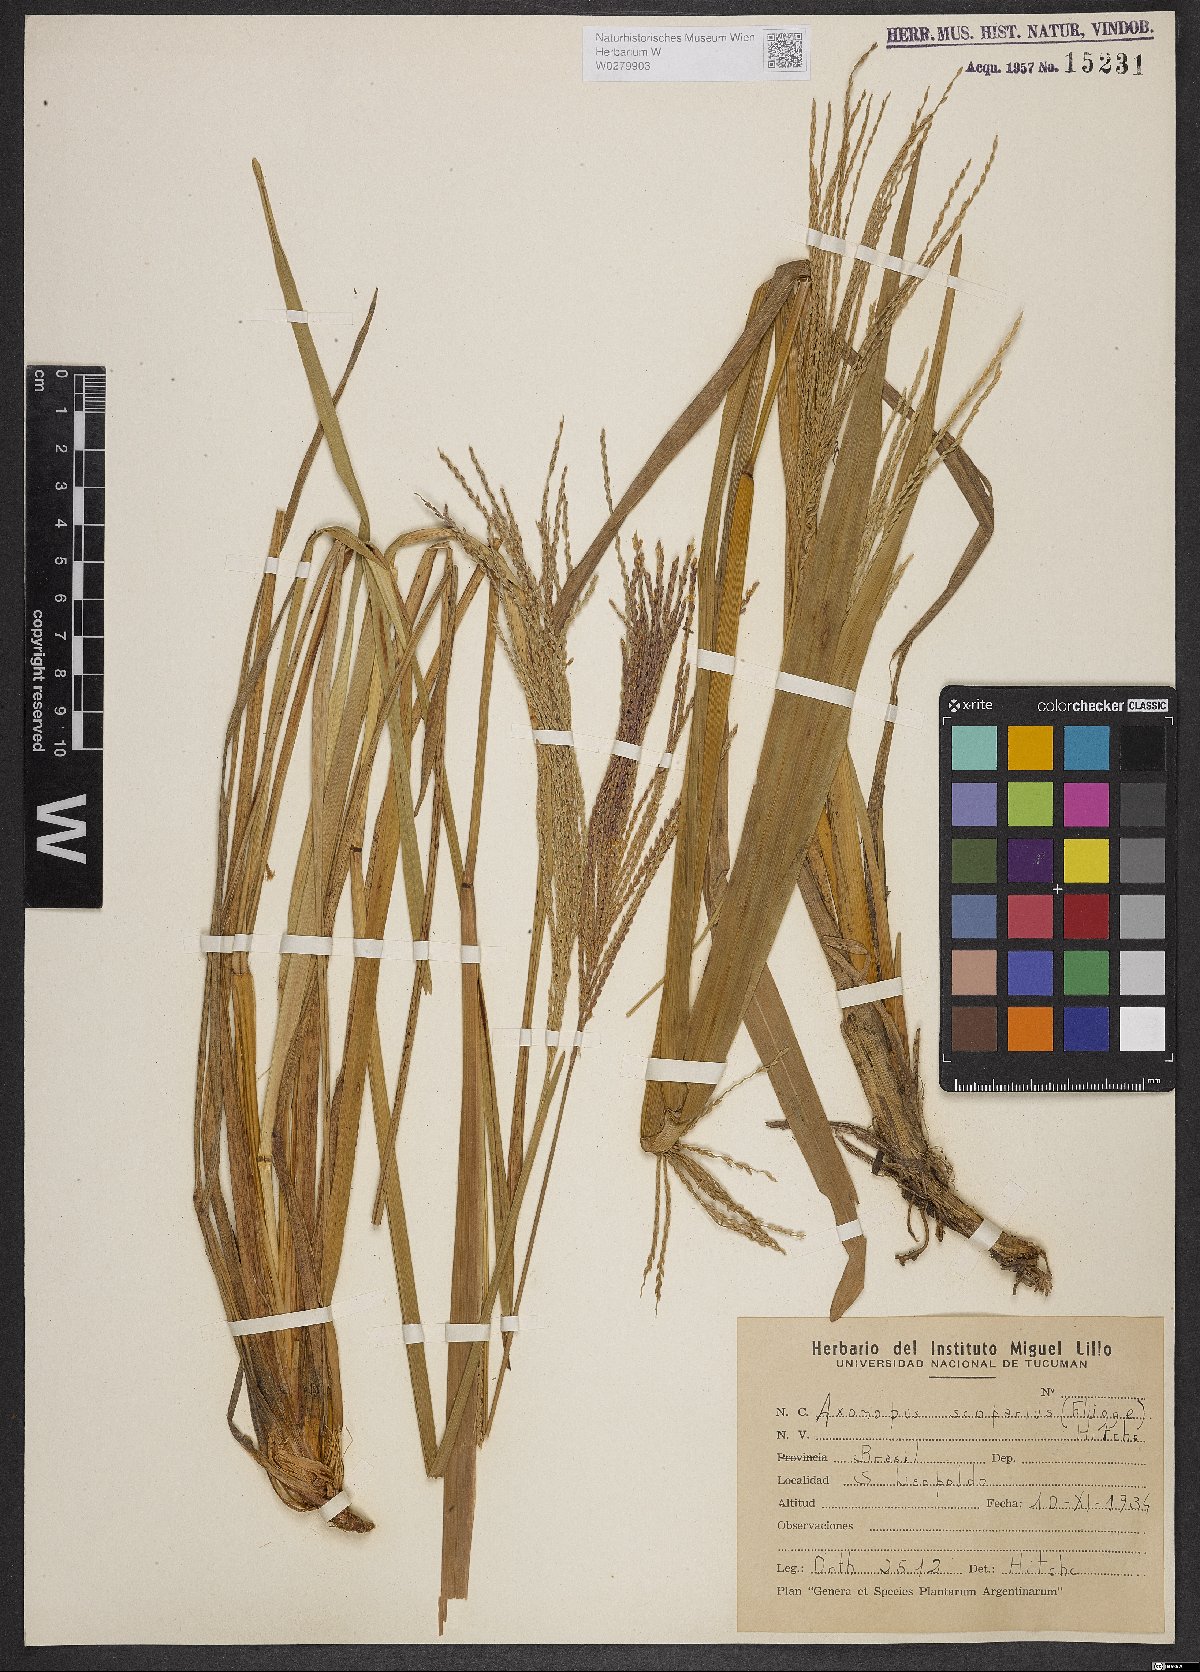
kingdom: Plantae
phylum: Tracheophyta
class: Liliopsida
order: Poales
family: Poaceae
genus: Axonopus
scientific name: Axonopus scoparius
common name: Imperial grass
